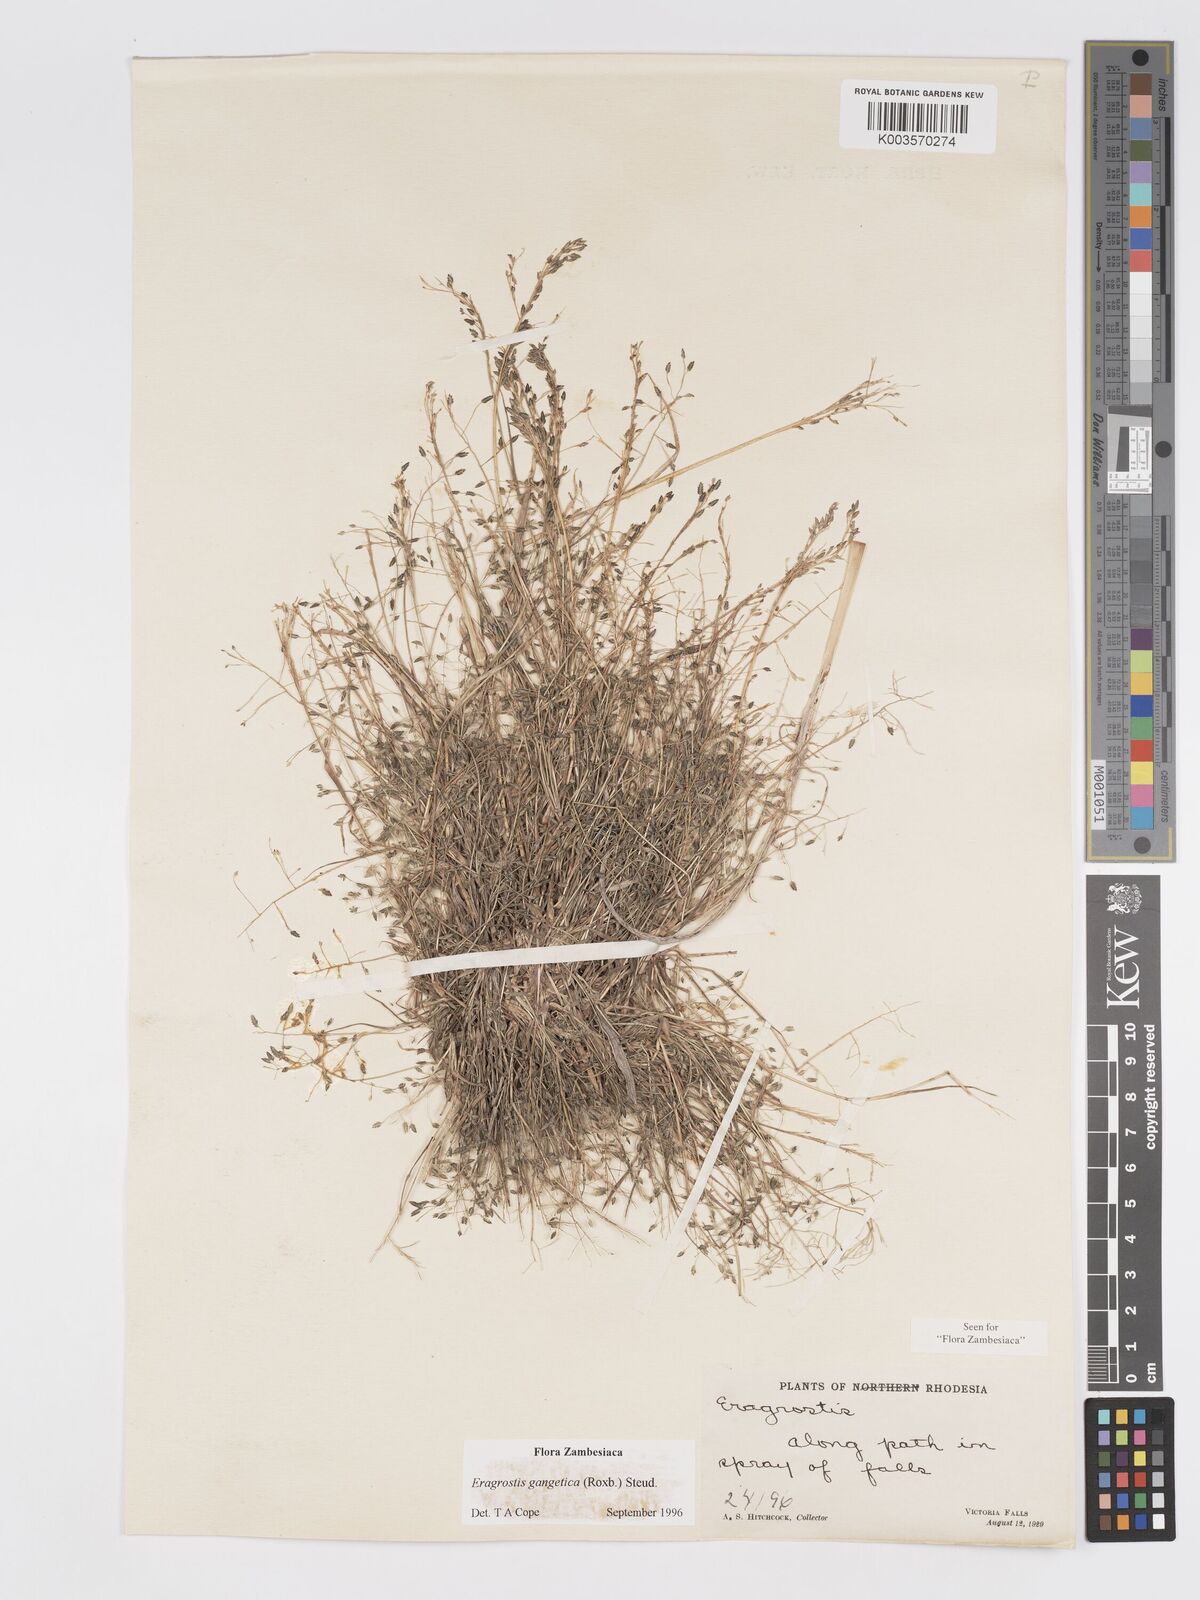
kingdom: Plantae
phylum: Tracheophyta
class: Liliopsida
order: Poales
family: Poaceae
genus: Eragrostis
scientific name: Eragrostis gangetica
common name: Slimflower lovegrass
